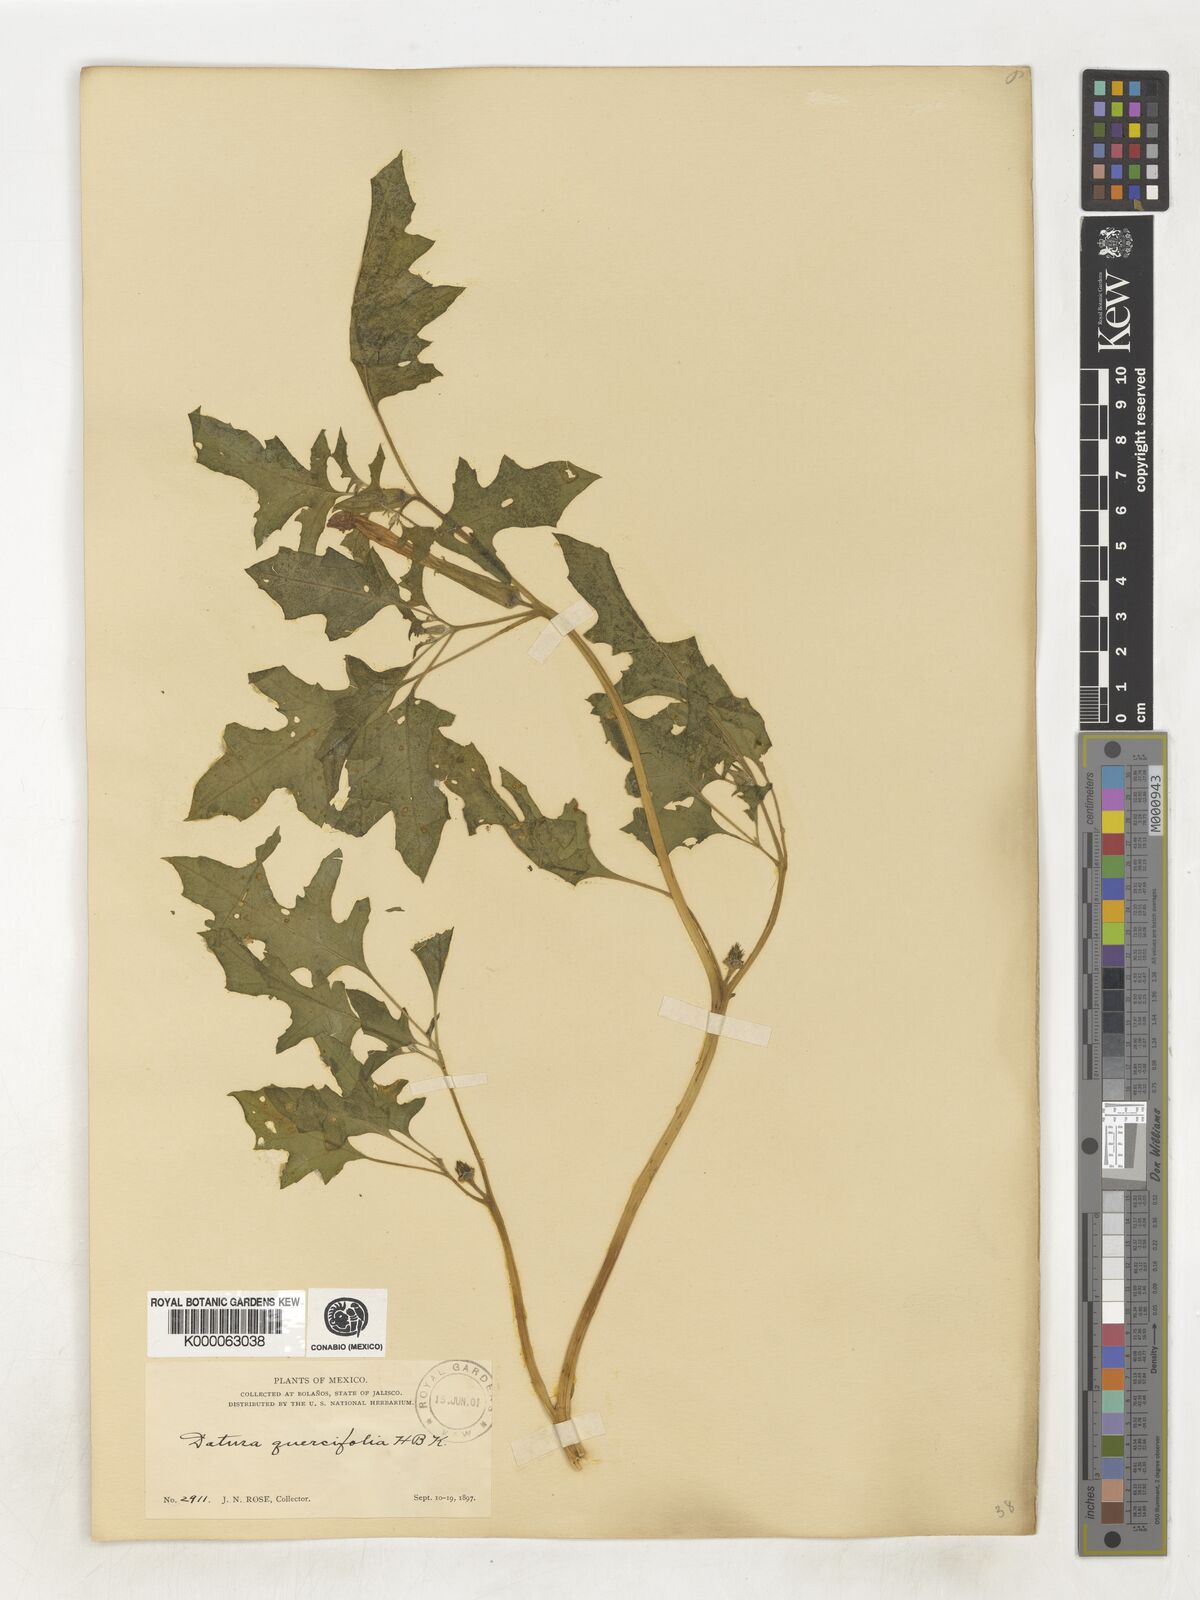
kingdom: Plantae
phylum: Tracheophyta
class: Magnoliopsida
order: Solanales
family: Solanaceae
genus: Datura
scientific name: Datura quercifolia
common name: Oak-leaf datura
